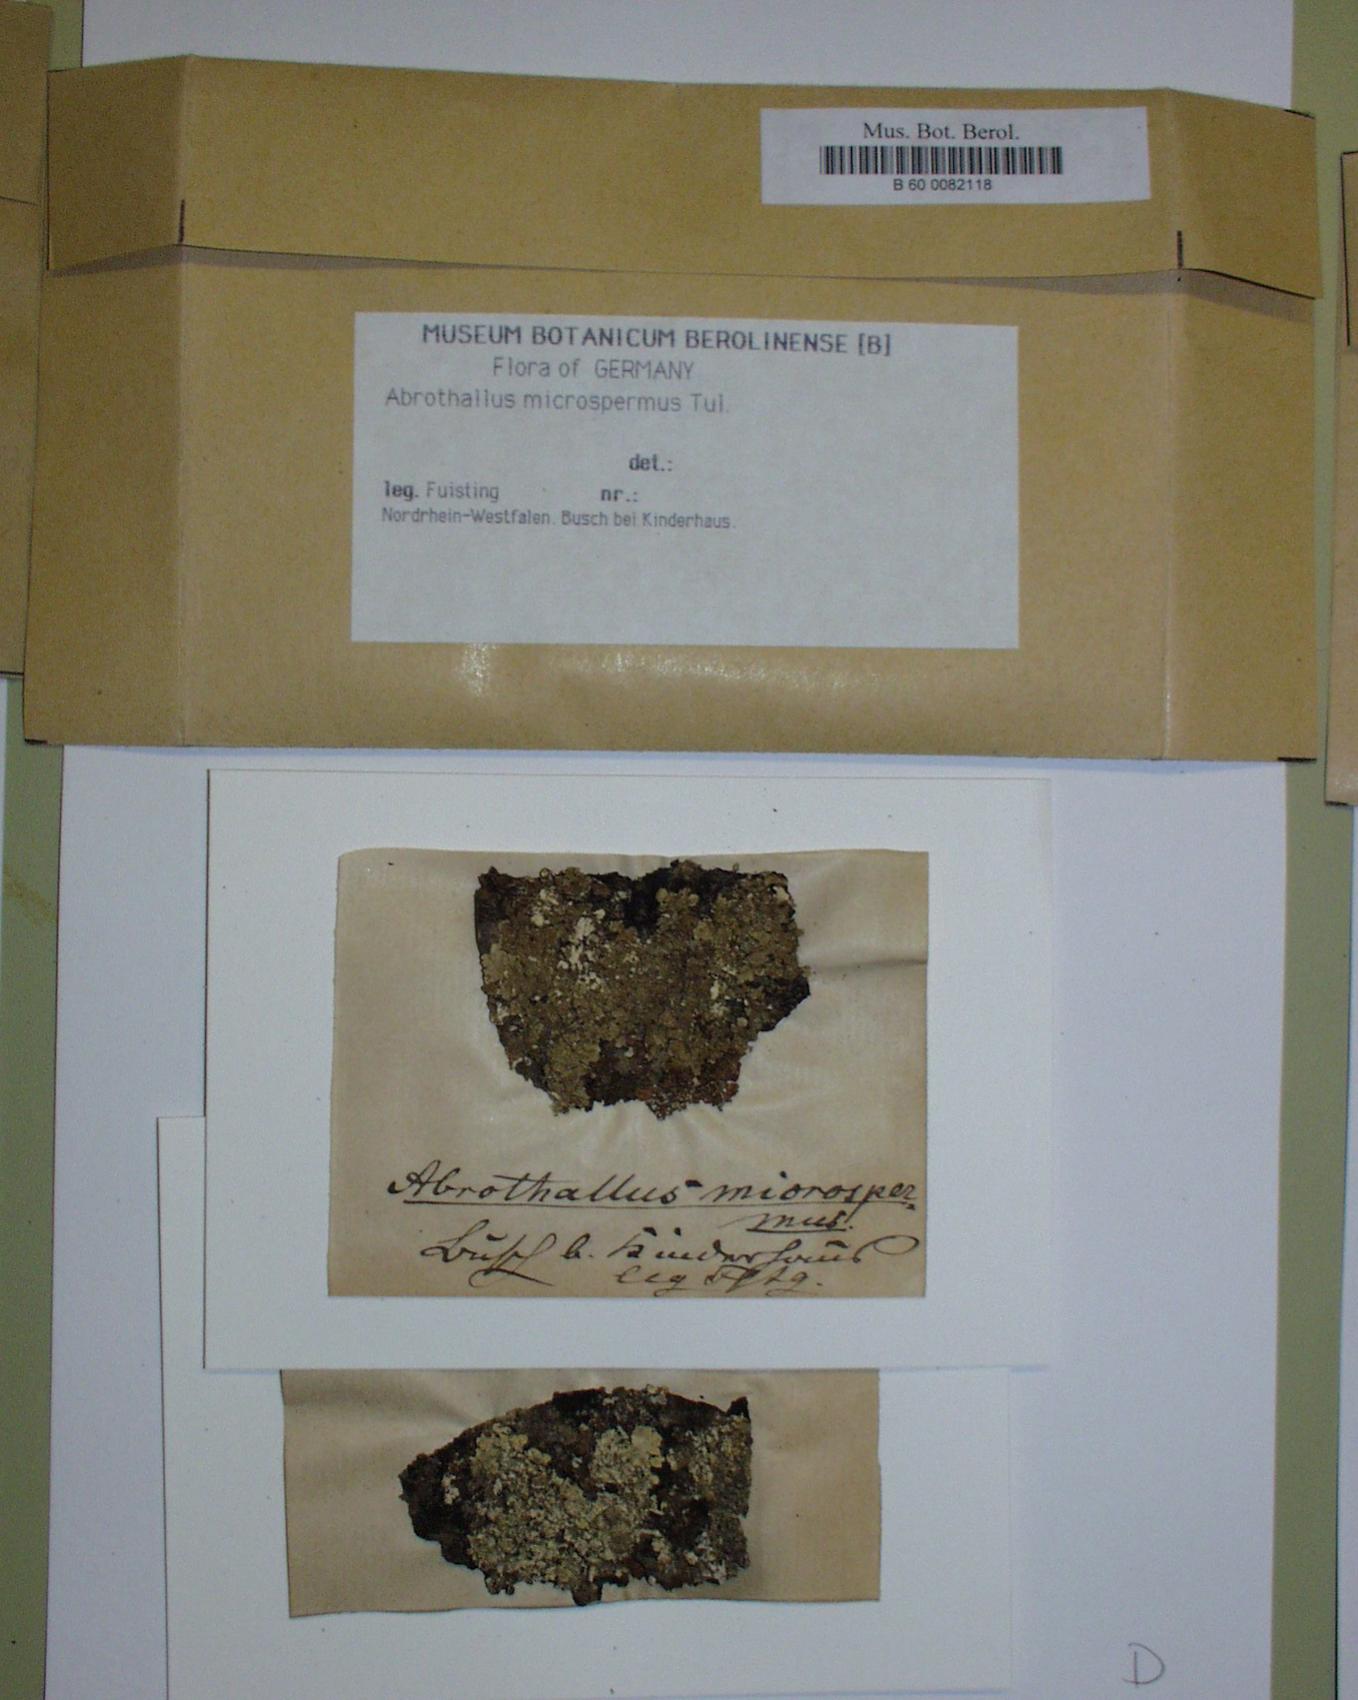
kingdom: Fungi
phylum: Ascomycota
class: Dothideomycetes
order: Abrothallales
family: Abrothallaceae
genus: Abrothallus
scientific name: Abrothallus microspermus
